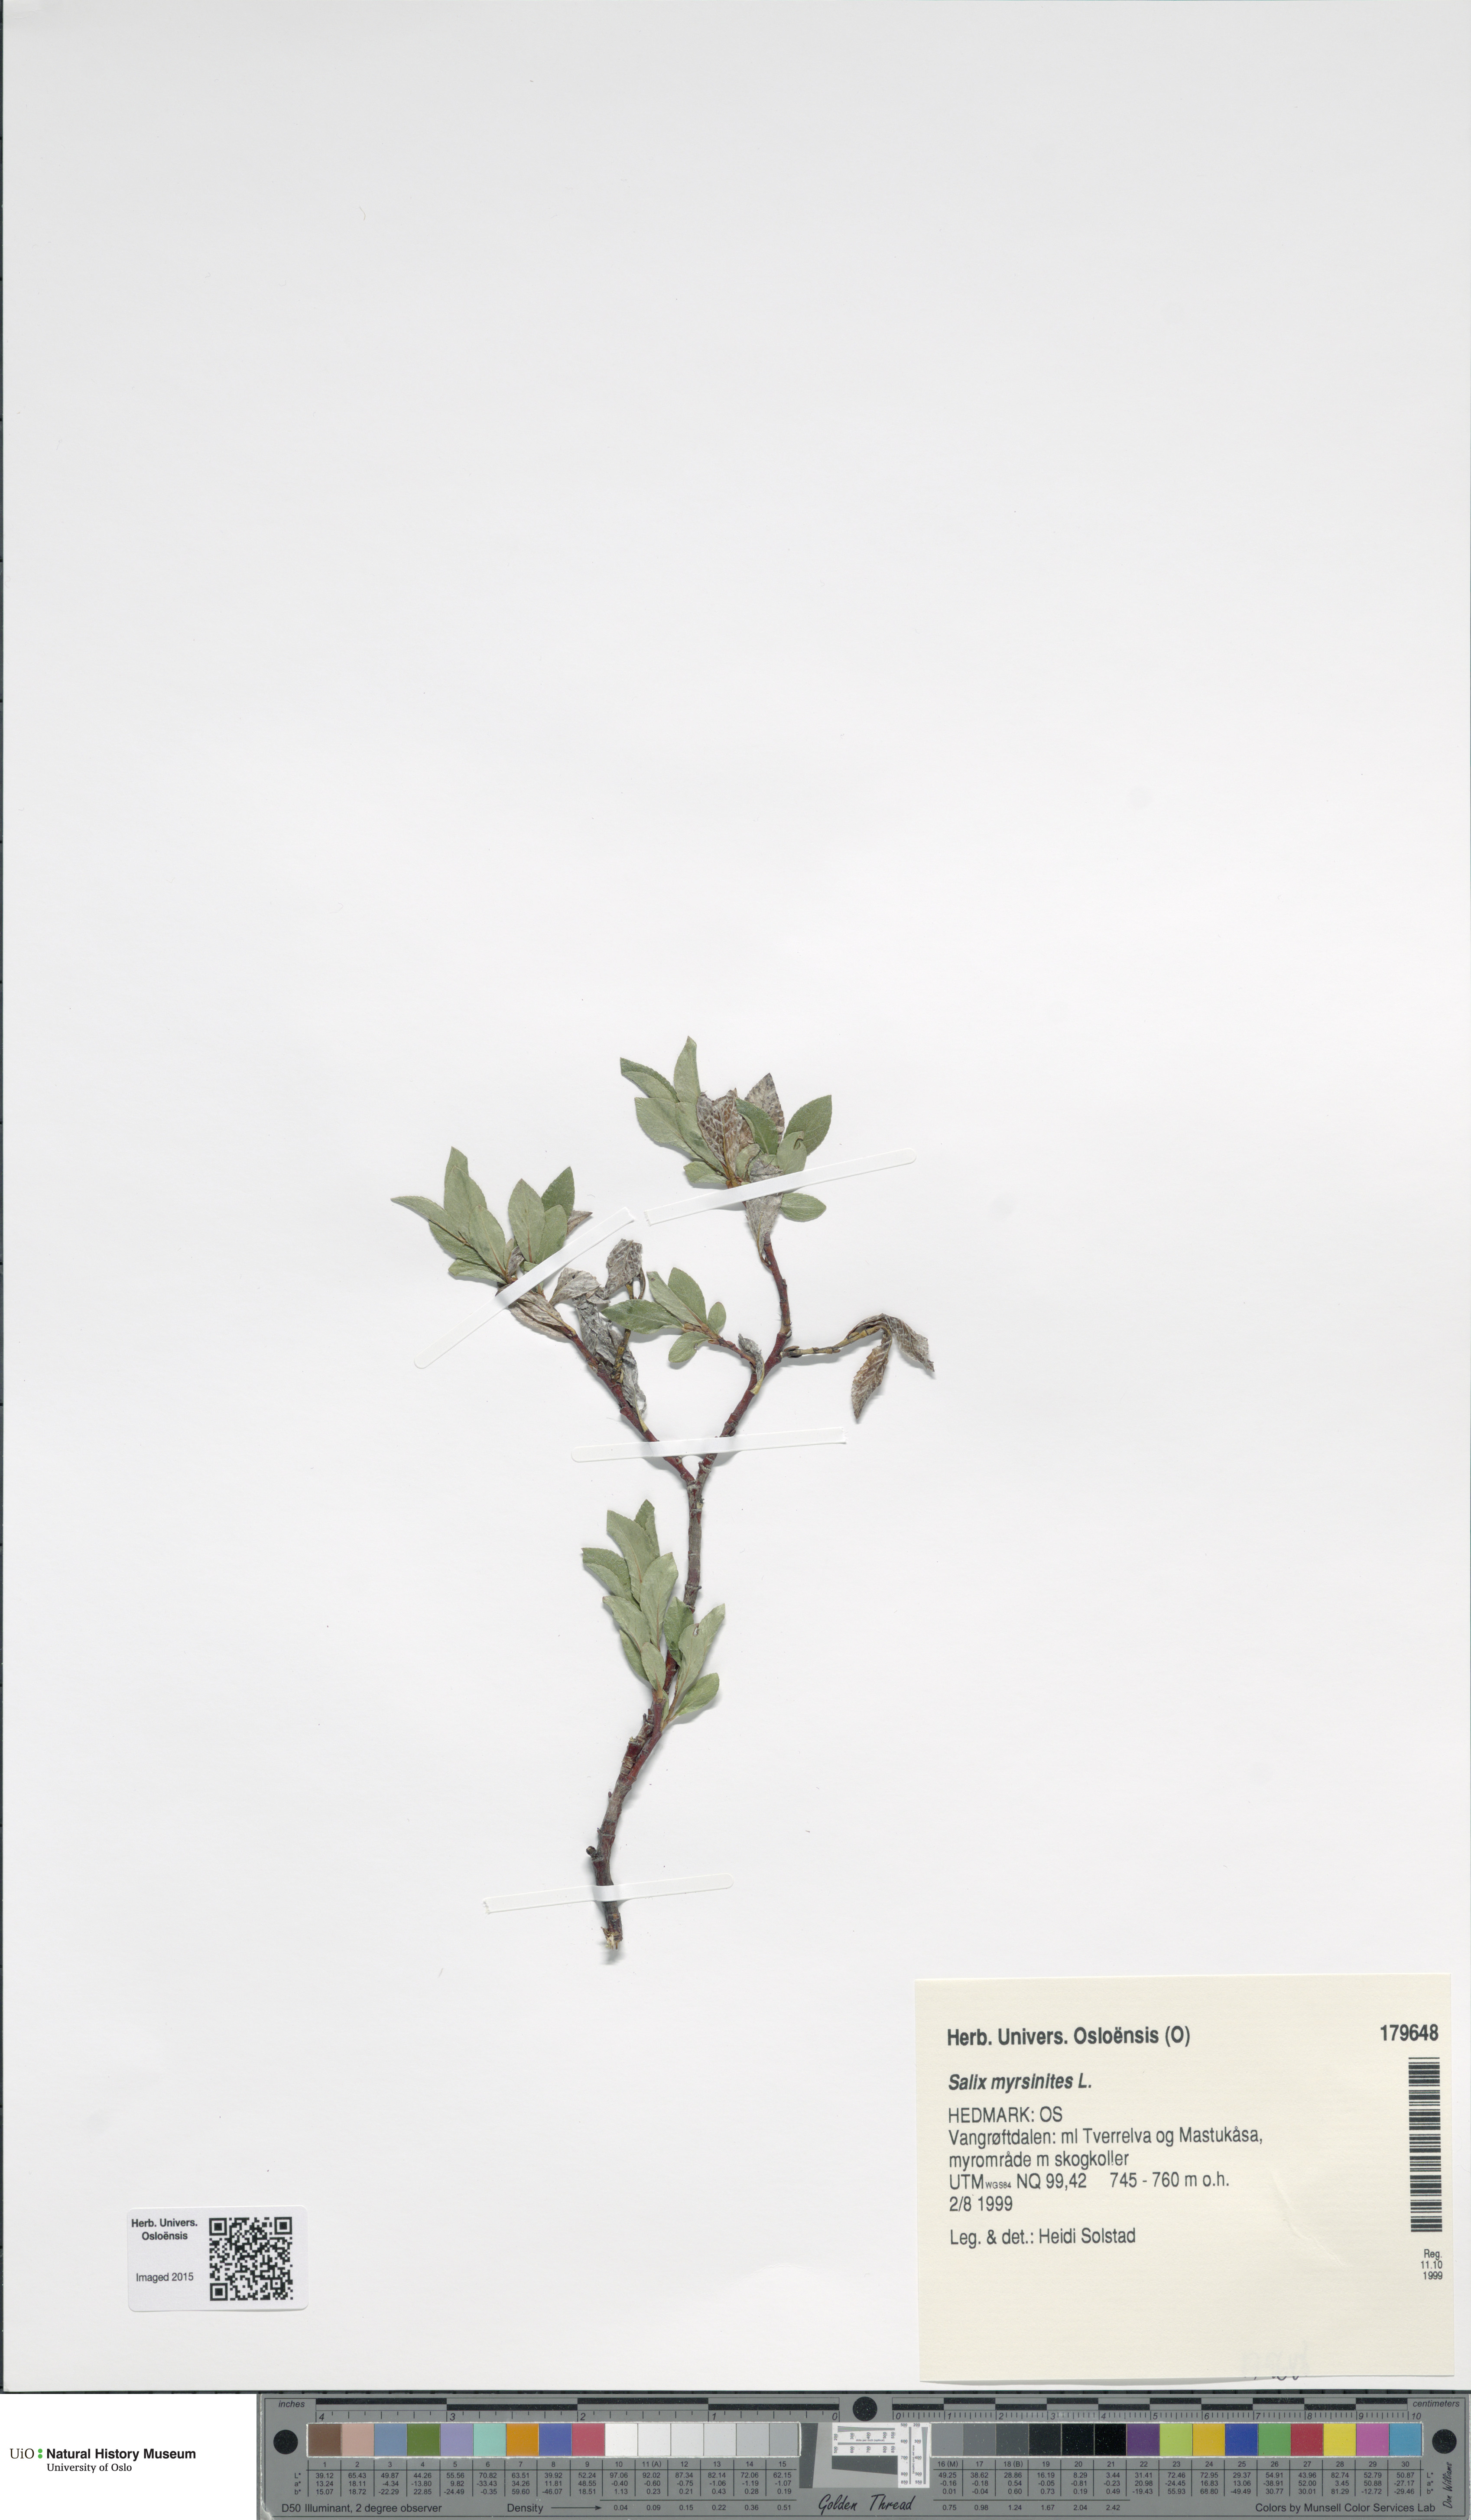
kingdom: Plantae
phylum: Tracheophyta
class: Magnoliopsida
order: Malpighiales
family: Salicaceae
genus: Salix
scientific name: Salix myrsinites
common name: Myrtle willow
